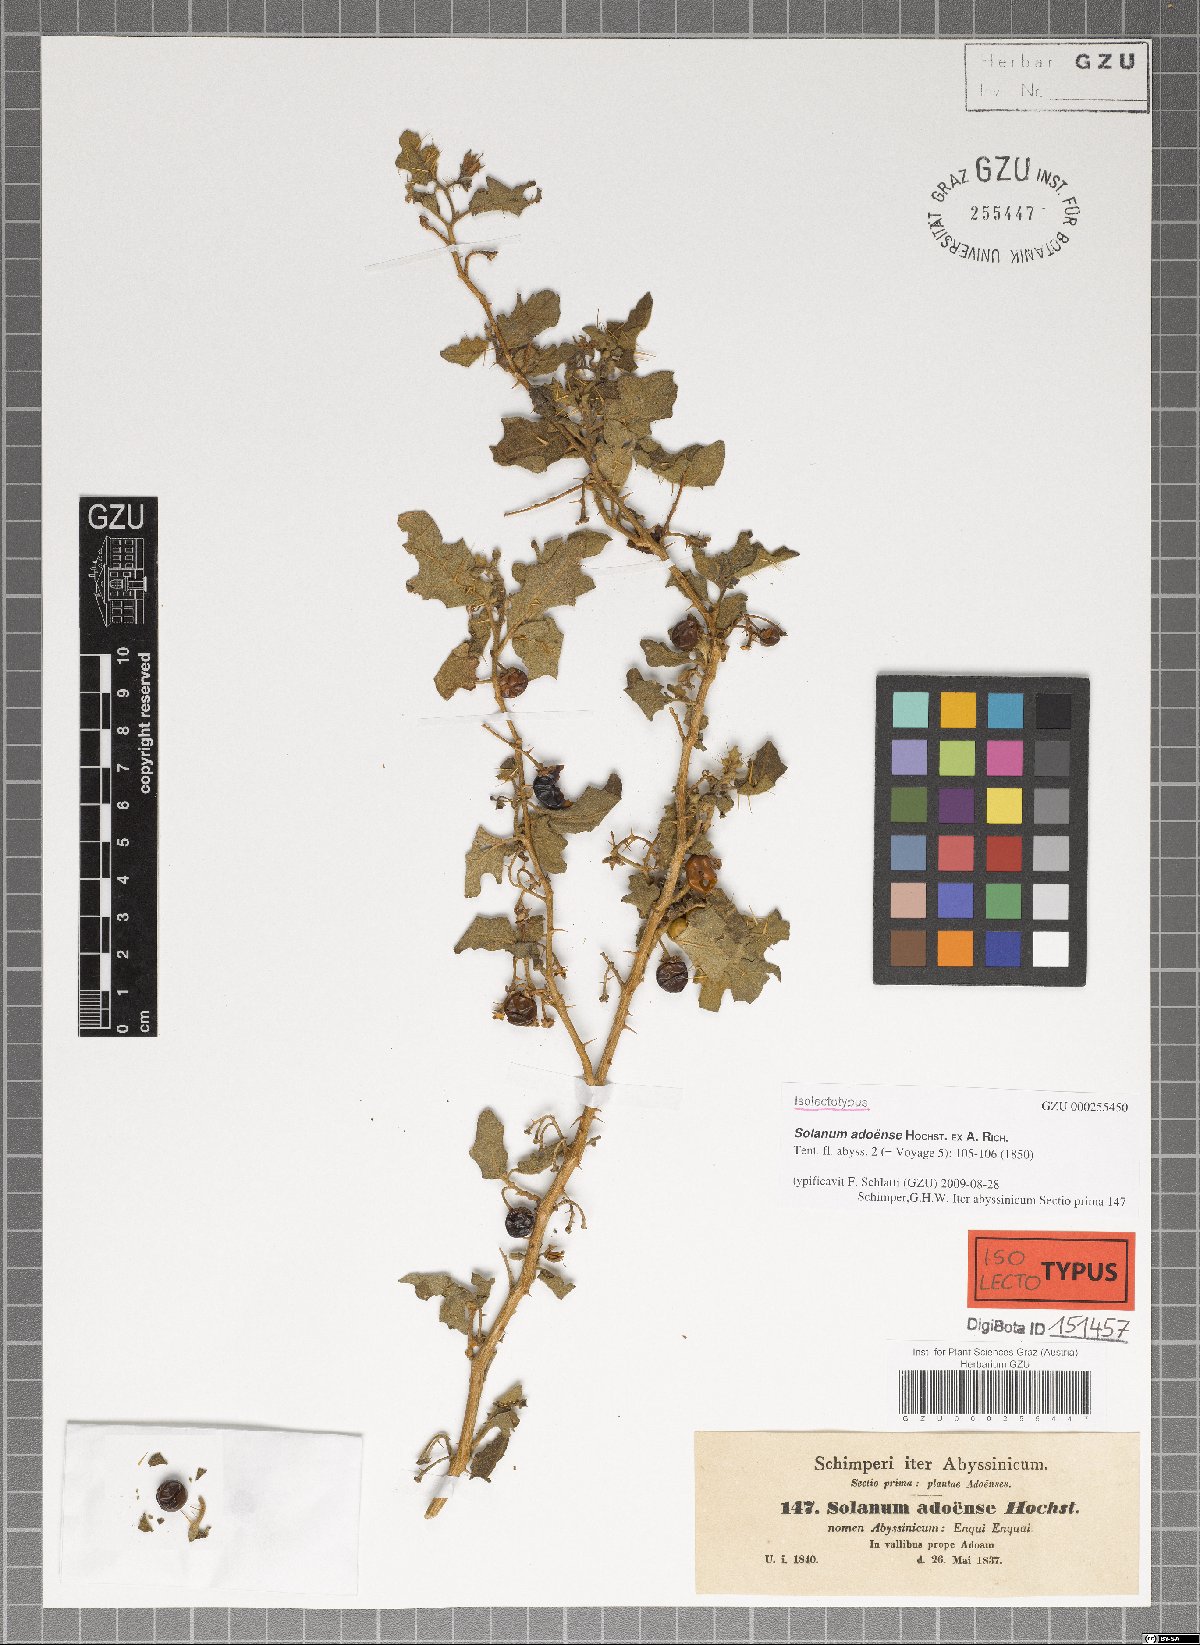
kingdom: Plantae
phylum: Tracheophyta
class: Magnoliopsida
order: Solanales
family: Solanaceae
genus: Solanum
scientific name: Solanum adoense
